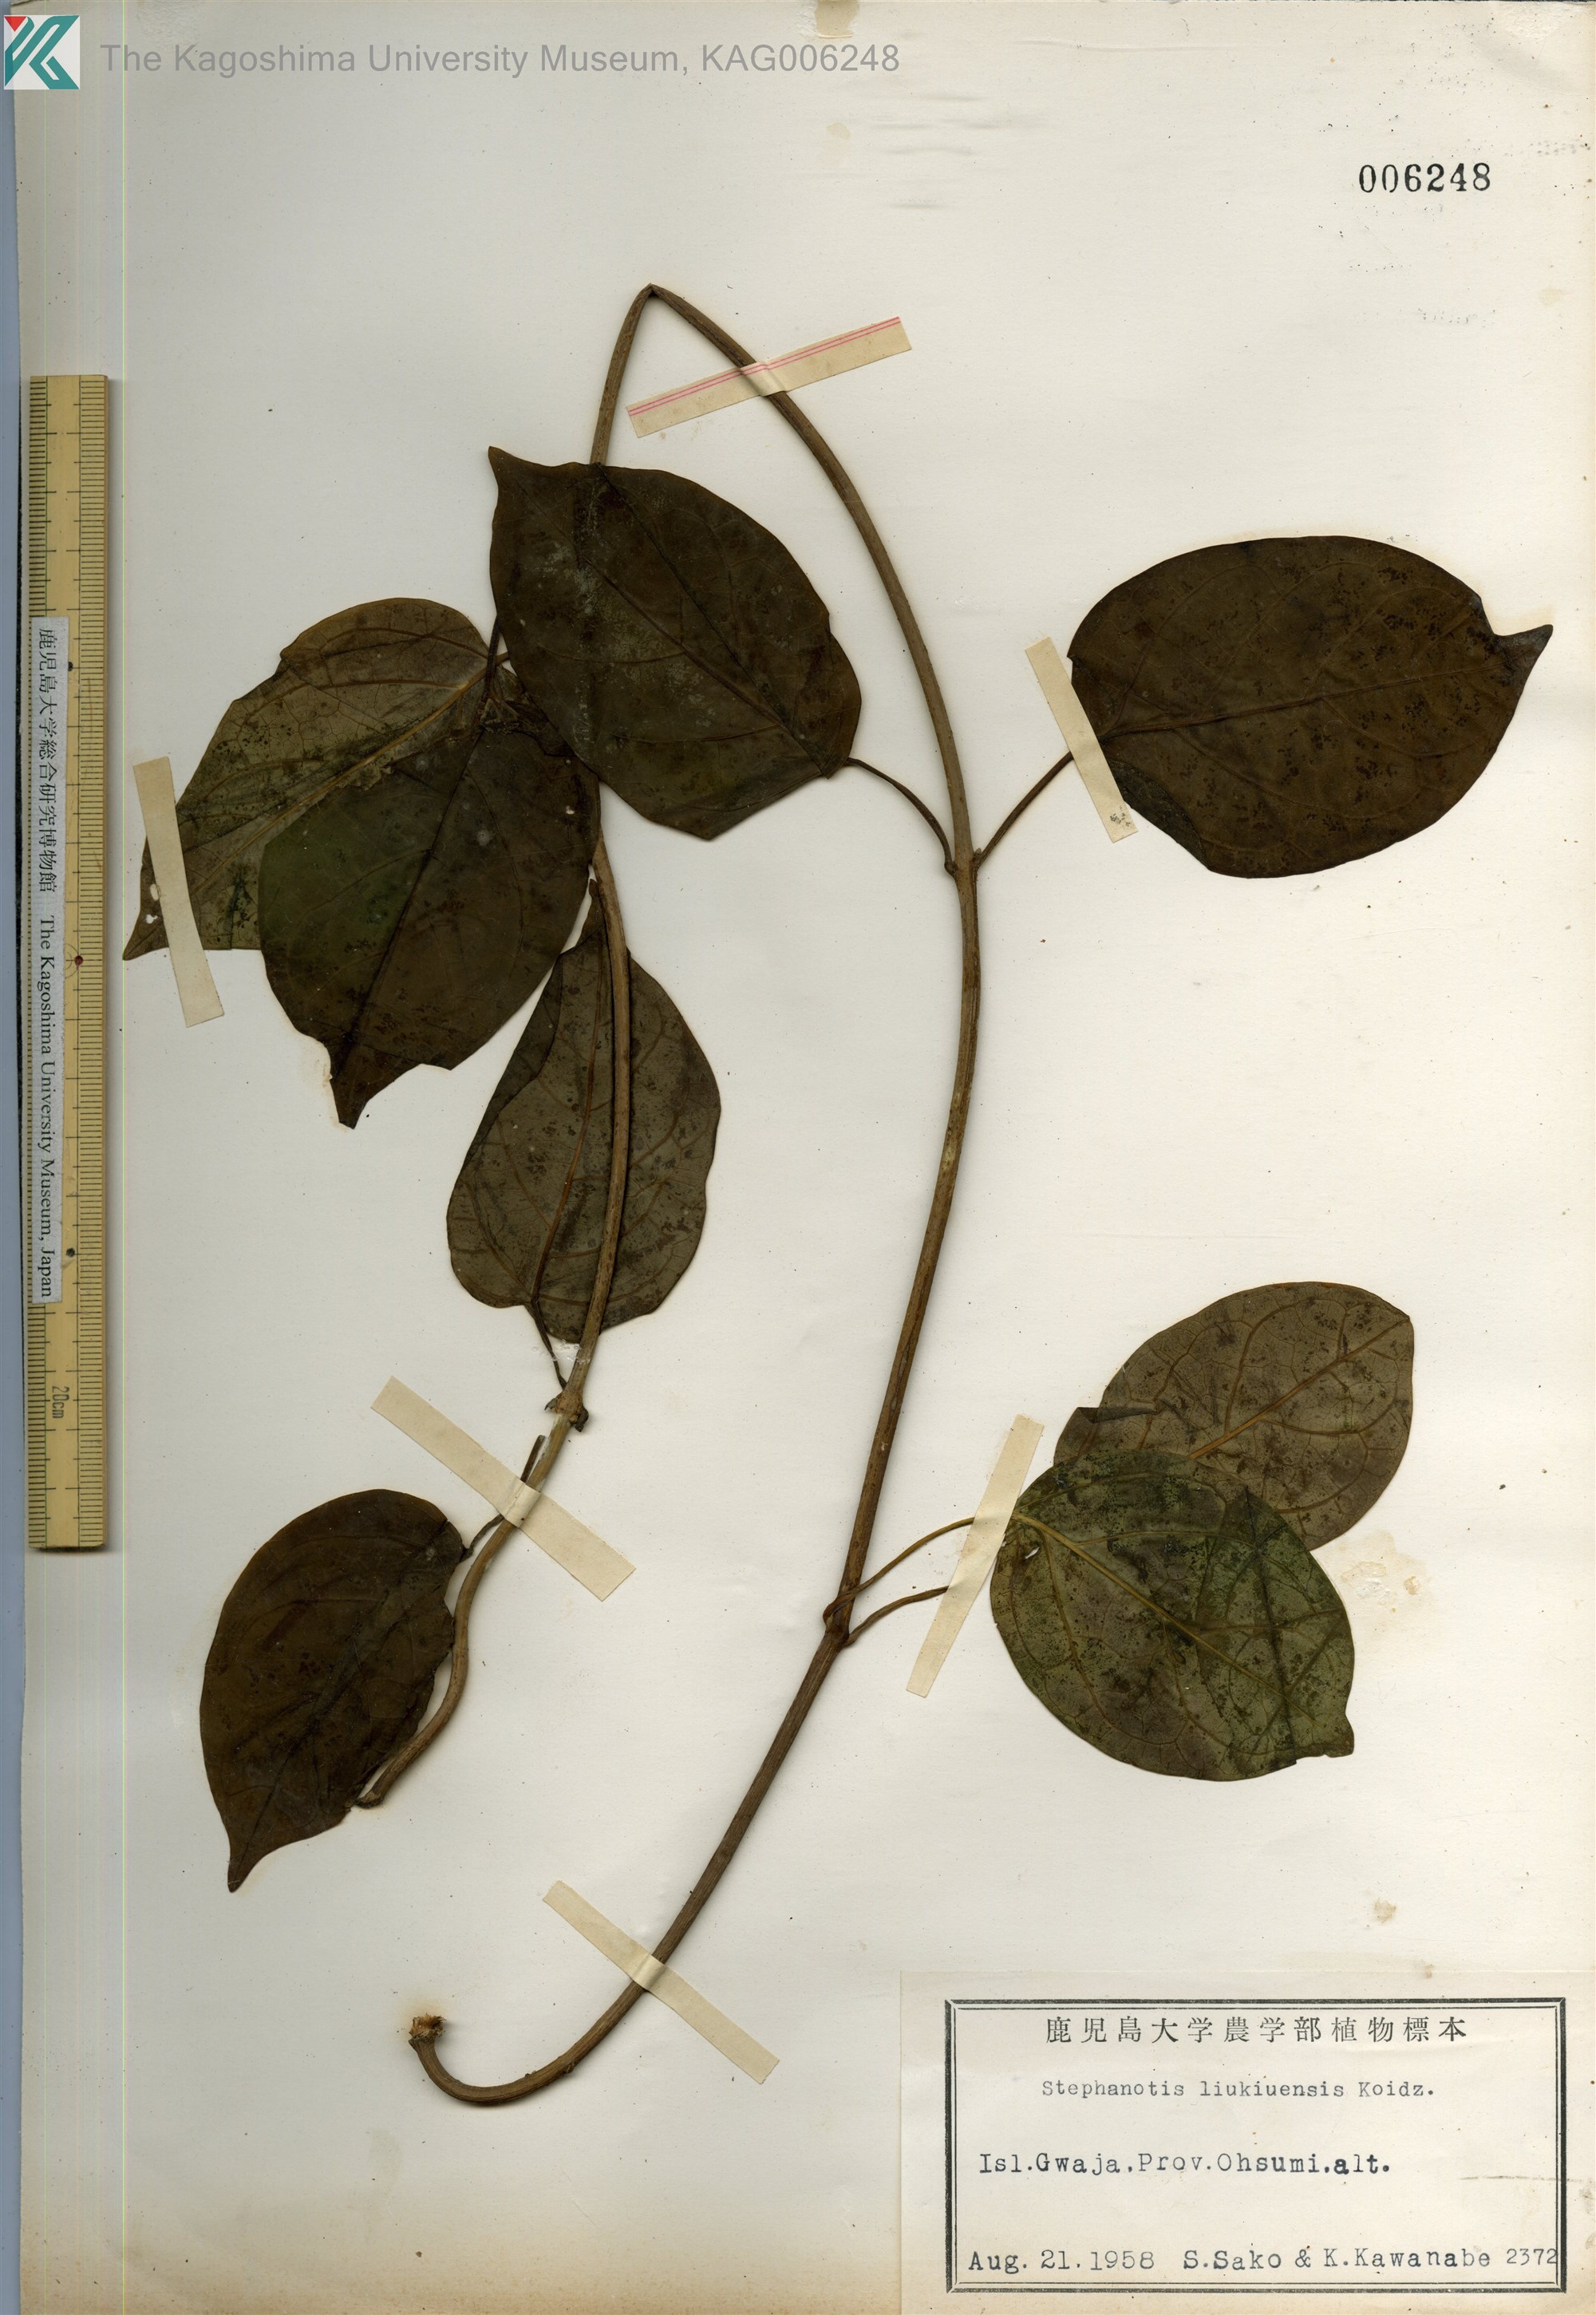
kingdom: Plantae
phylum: Tracheophyta
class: Magnoliopsida
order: Gentianales
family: Apocynaceae
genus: Jasminanthes
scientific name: Jasminanthes mucronata
